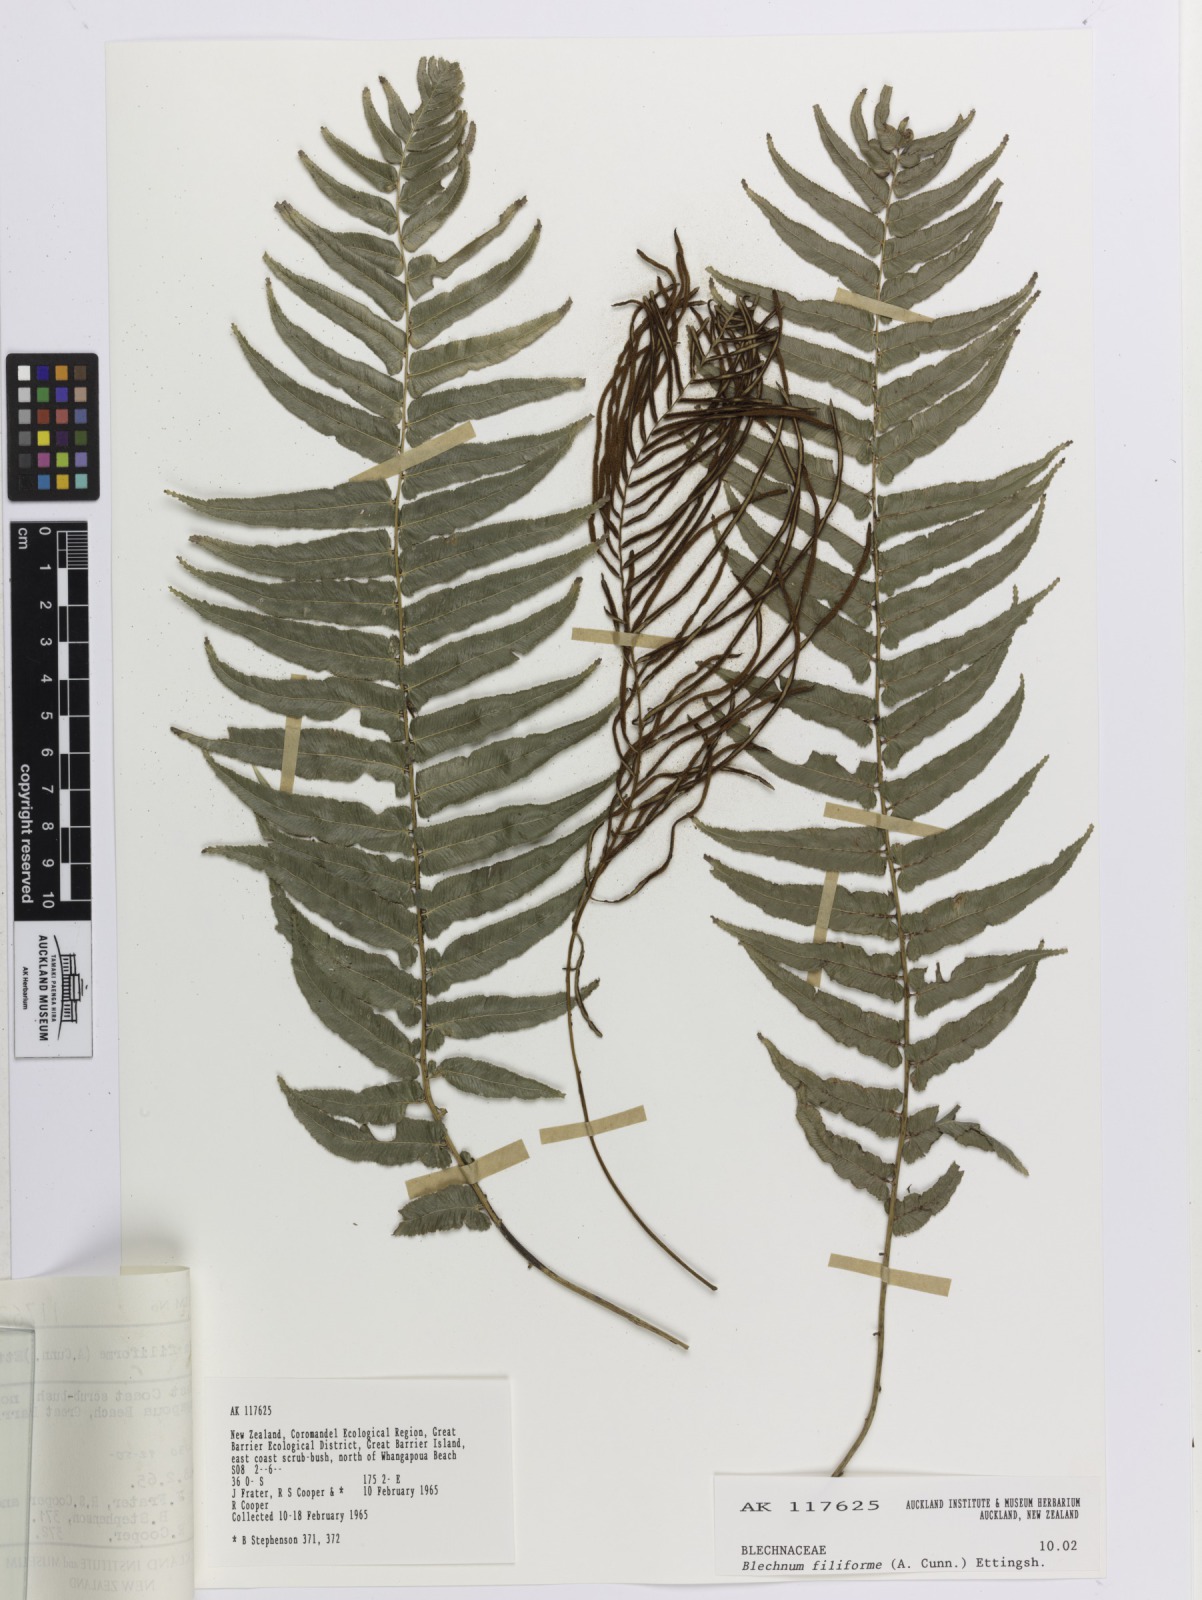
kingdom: Plantae
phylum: Tracheophyta
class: Polypodiopsida
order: Polypodiales
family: Blechnaceae
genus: Icarus
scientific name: Icarus filiformis
